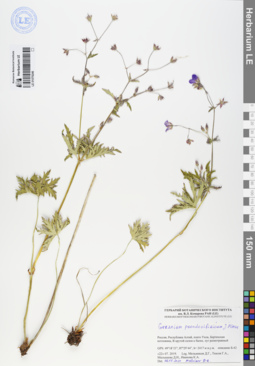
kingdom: Plantae
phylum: Tracheophyta
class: Magnoliopsida
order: Geraniales
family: Geraniaceae
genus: Geranium
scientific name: Geranium pseudosibiricum
